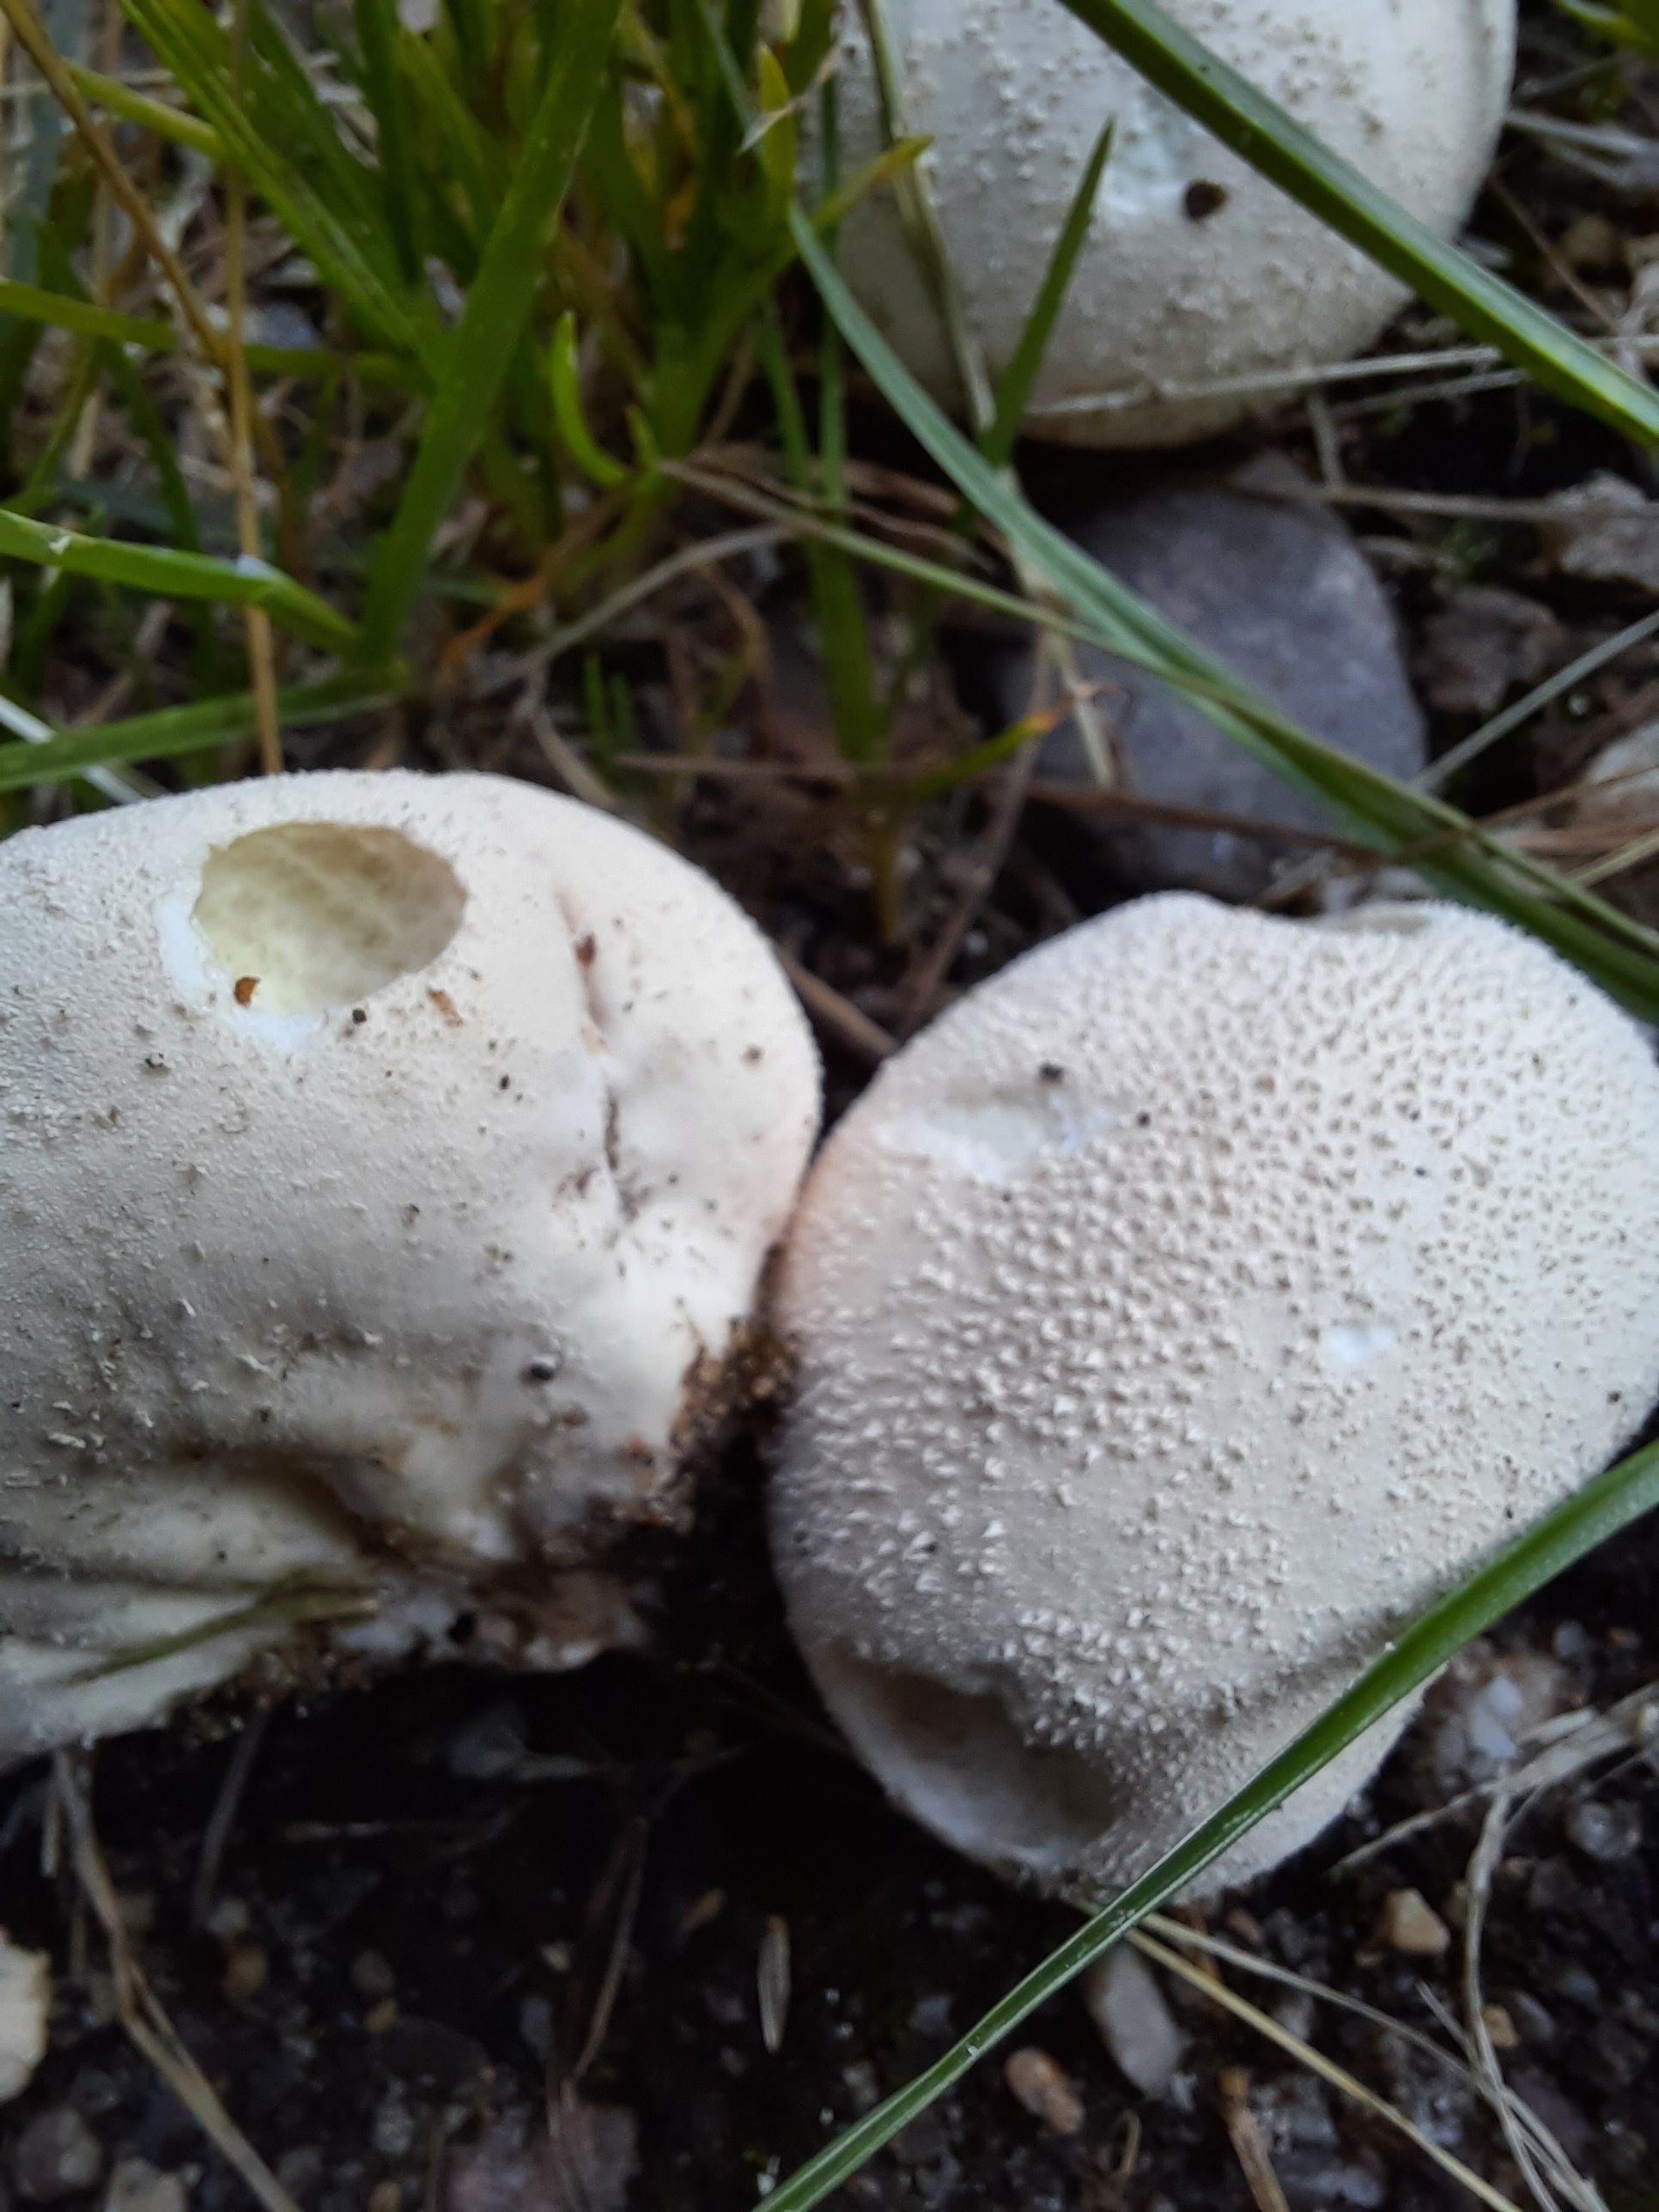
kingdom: Fungi
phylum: Basidiomycota
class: Agaricomycetes
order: Agaricales
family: Lycoperdaceae
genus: Lycoperdon
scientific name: Lycoperdon pratense
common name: flad støvbold
